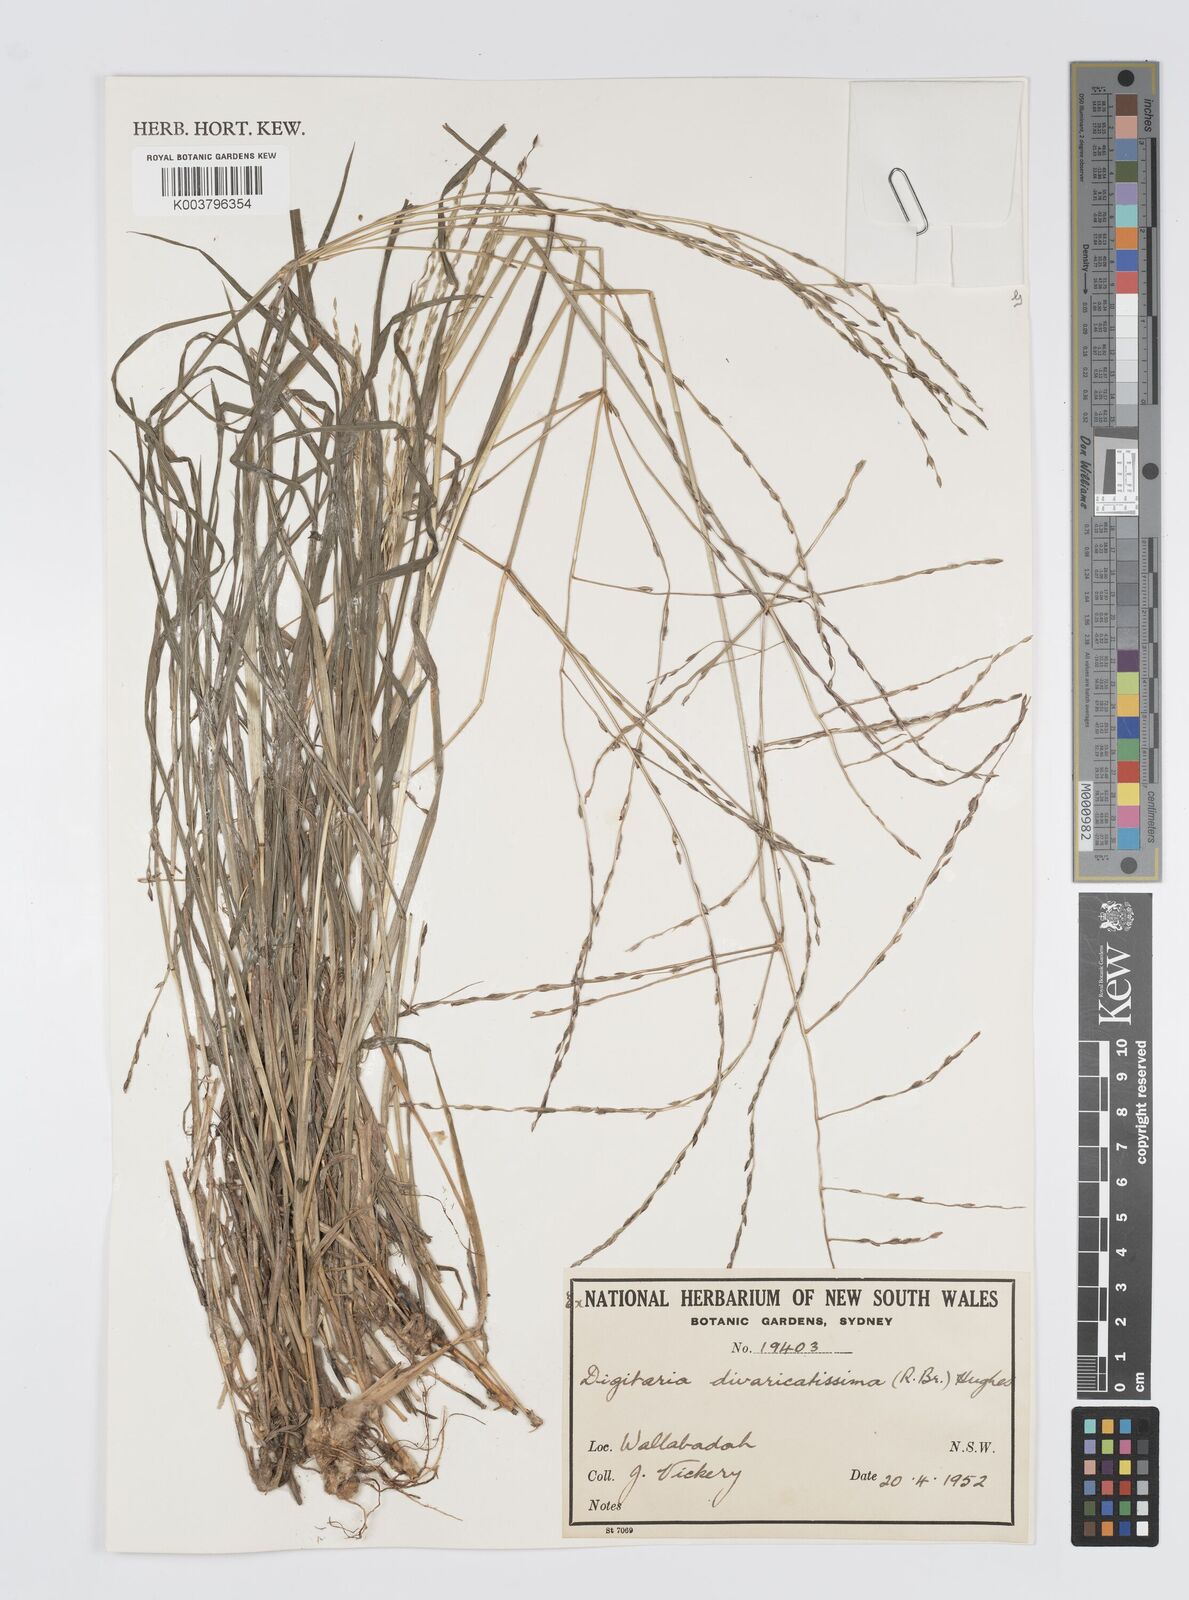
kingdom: Plantae
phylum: Tracheophyta
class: Liliopsida
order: Poales
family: Poaceae
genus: Digitaria
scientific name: Digitaria divaricatissima
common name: Crabgrass
